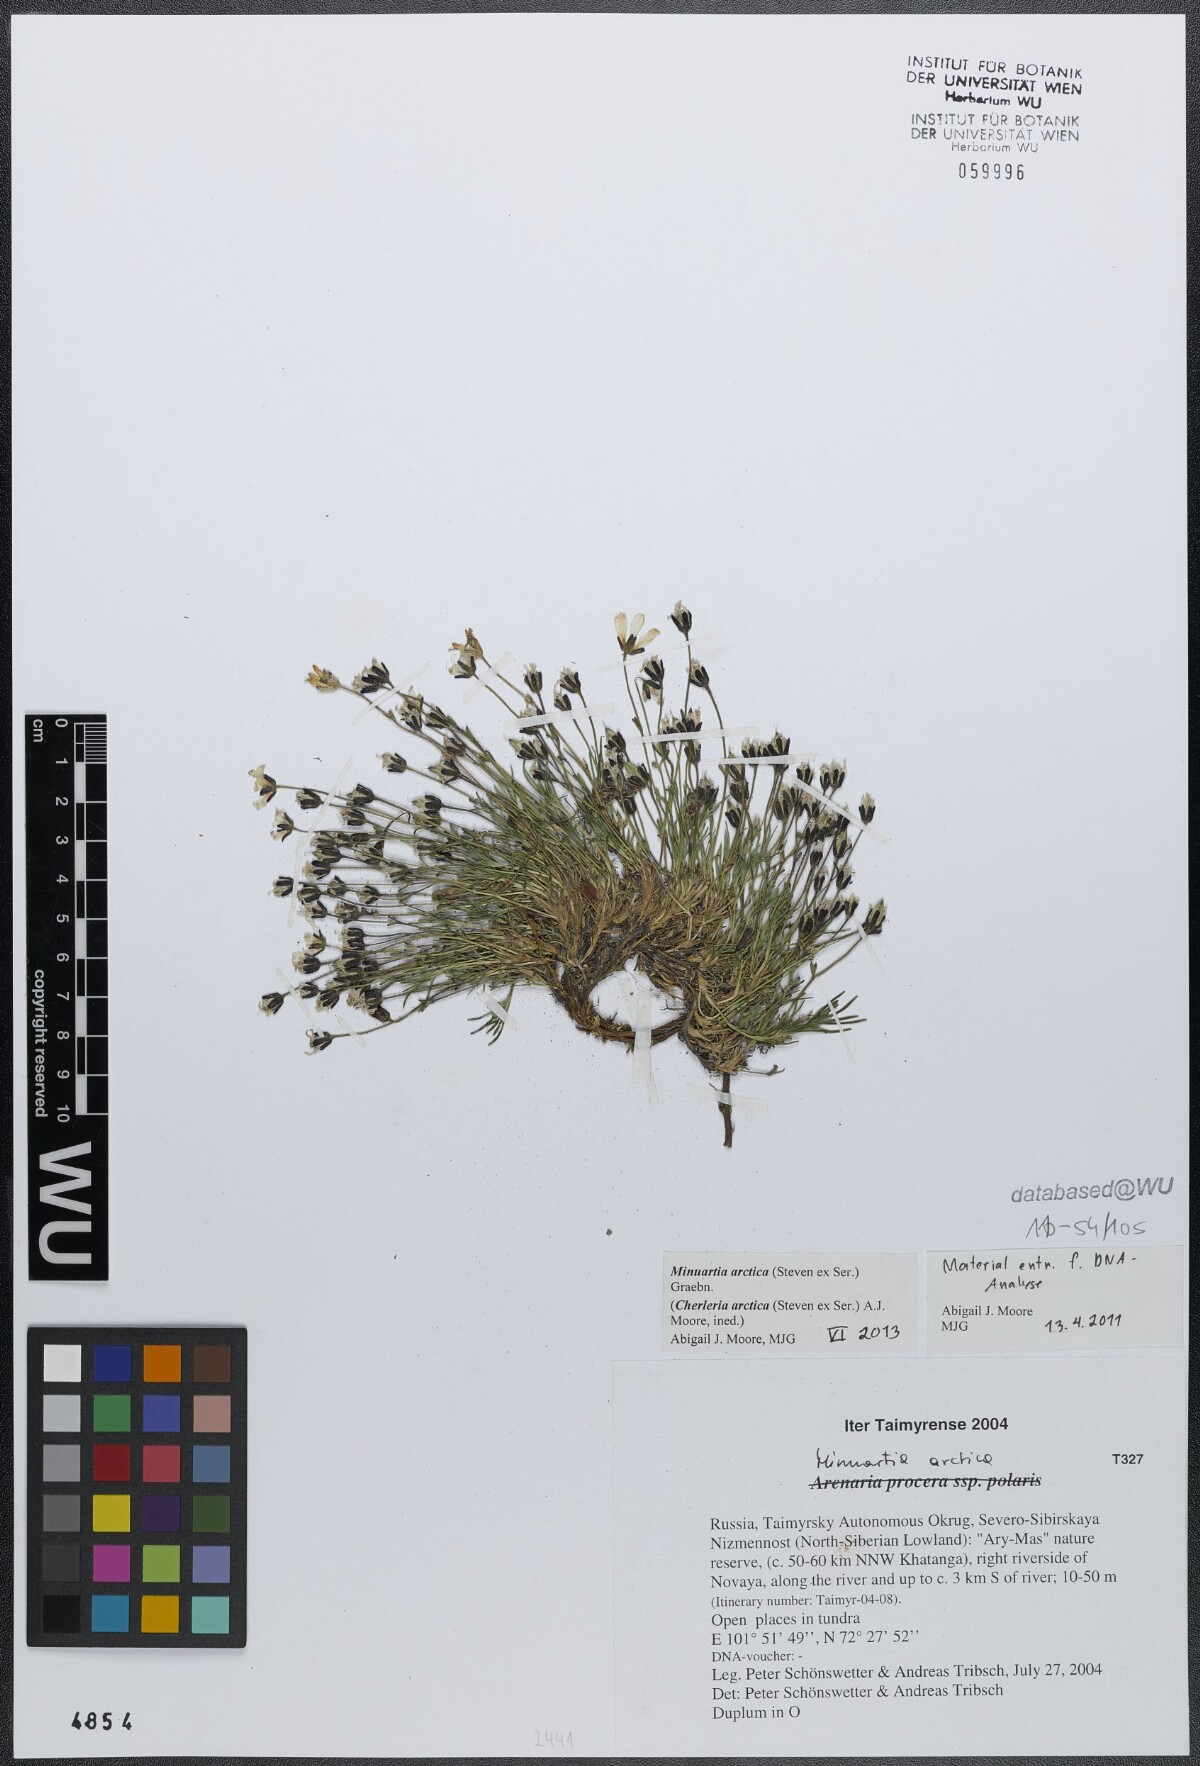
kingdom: Plantae
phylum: Tracheophyta
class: Magnoliopsida
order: Caryophyllales
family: Caryophyllaceae
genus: Cherleria
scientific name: Cherleria arctica
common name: Arctic sandwort
